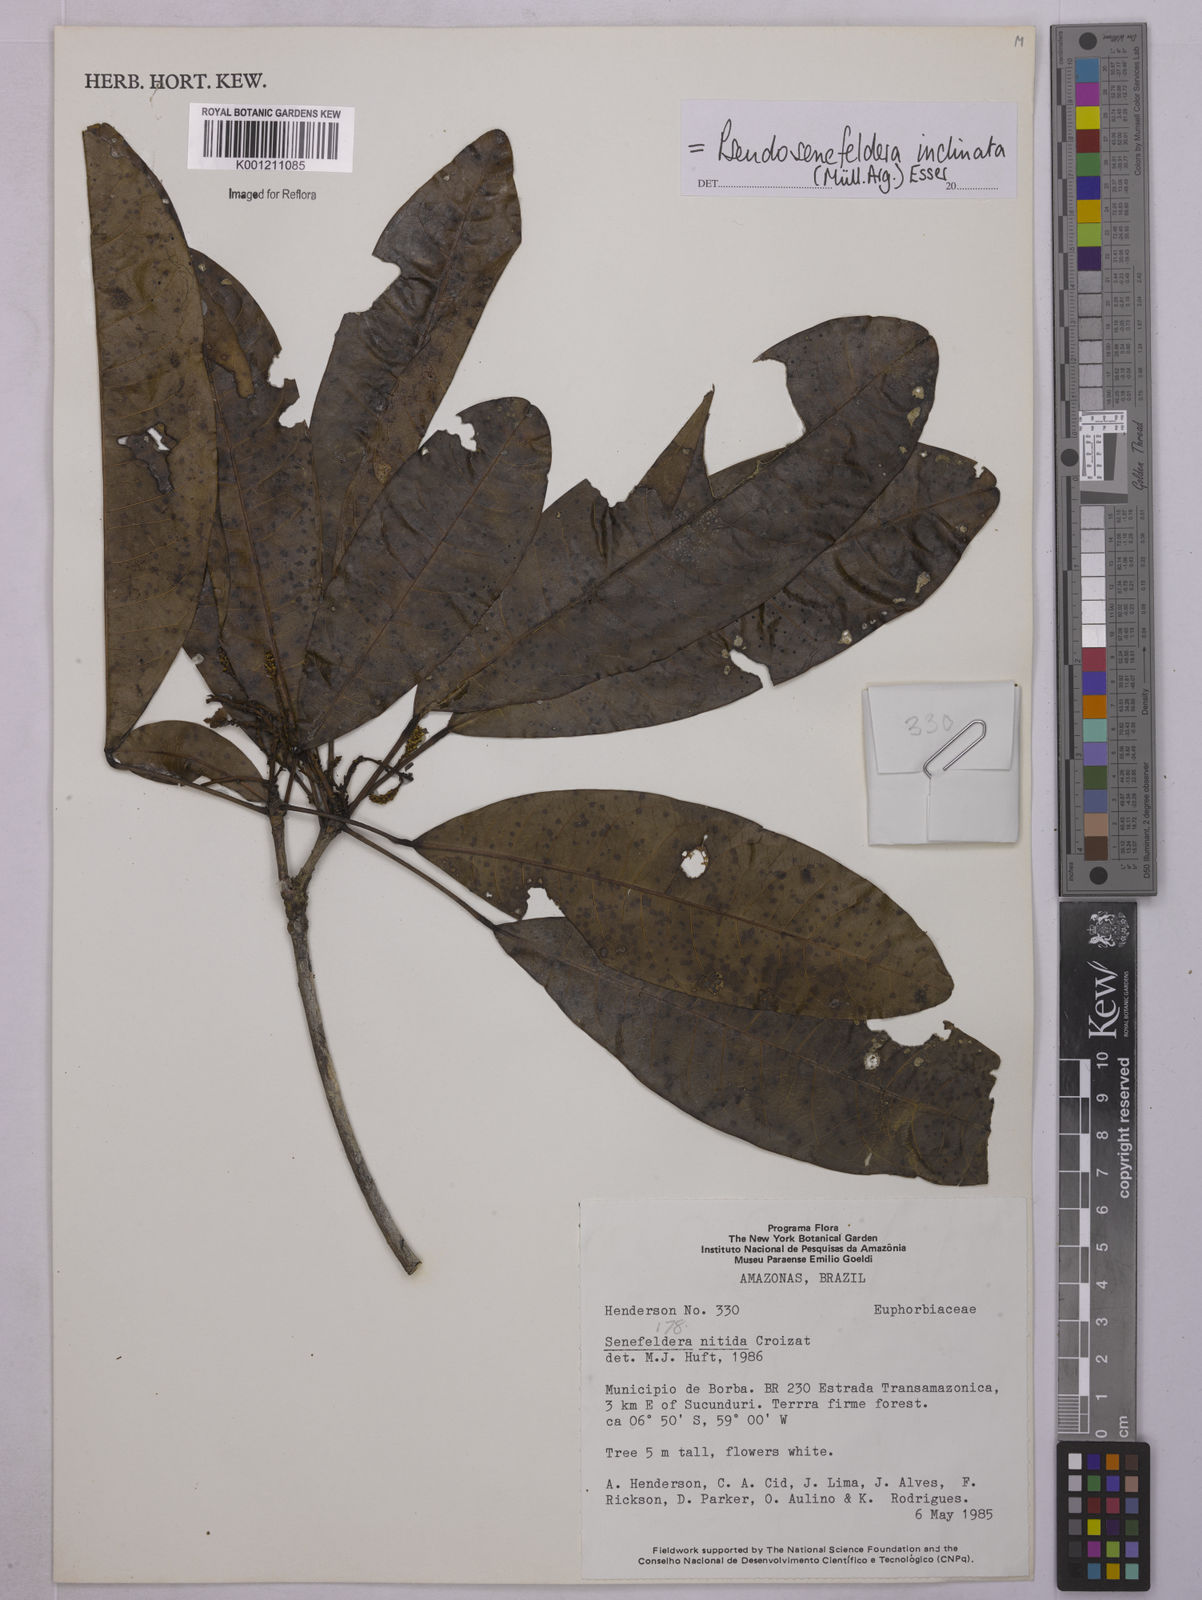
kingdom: Plantae
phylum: Tracheophyta
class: Magnoliopsida
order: Malpighiales
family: Euphorbiaceae
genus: Pseudosenefeldera
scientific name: Pseudosenefeldera
